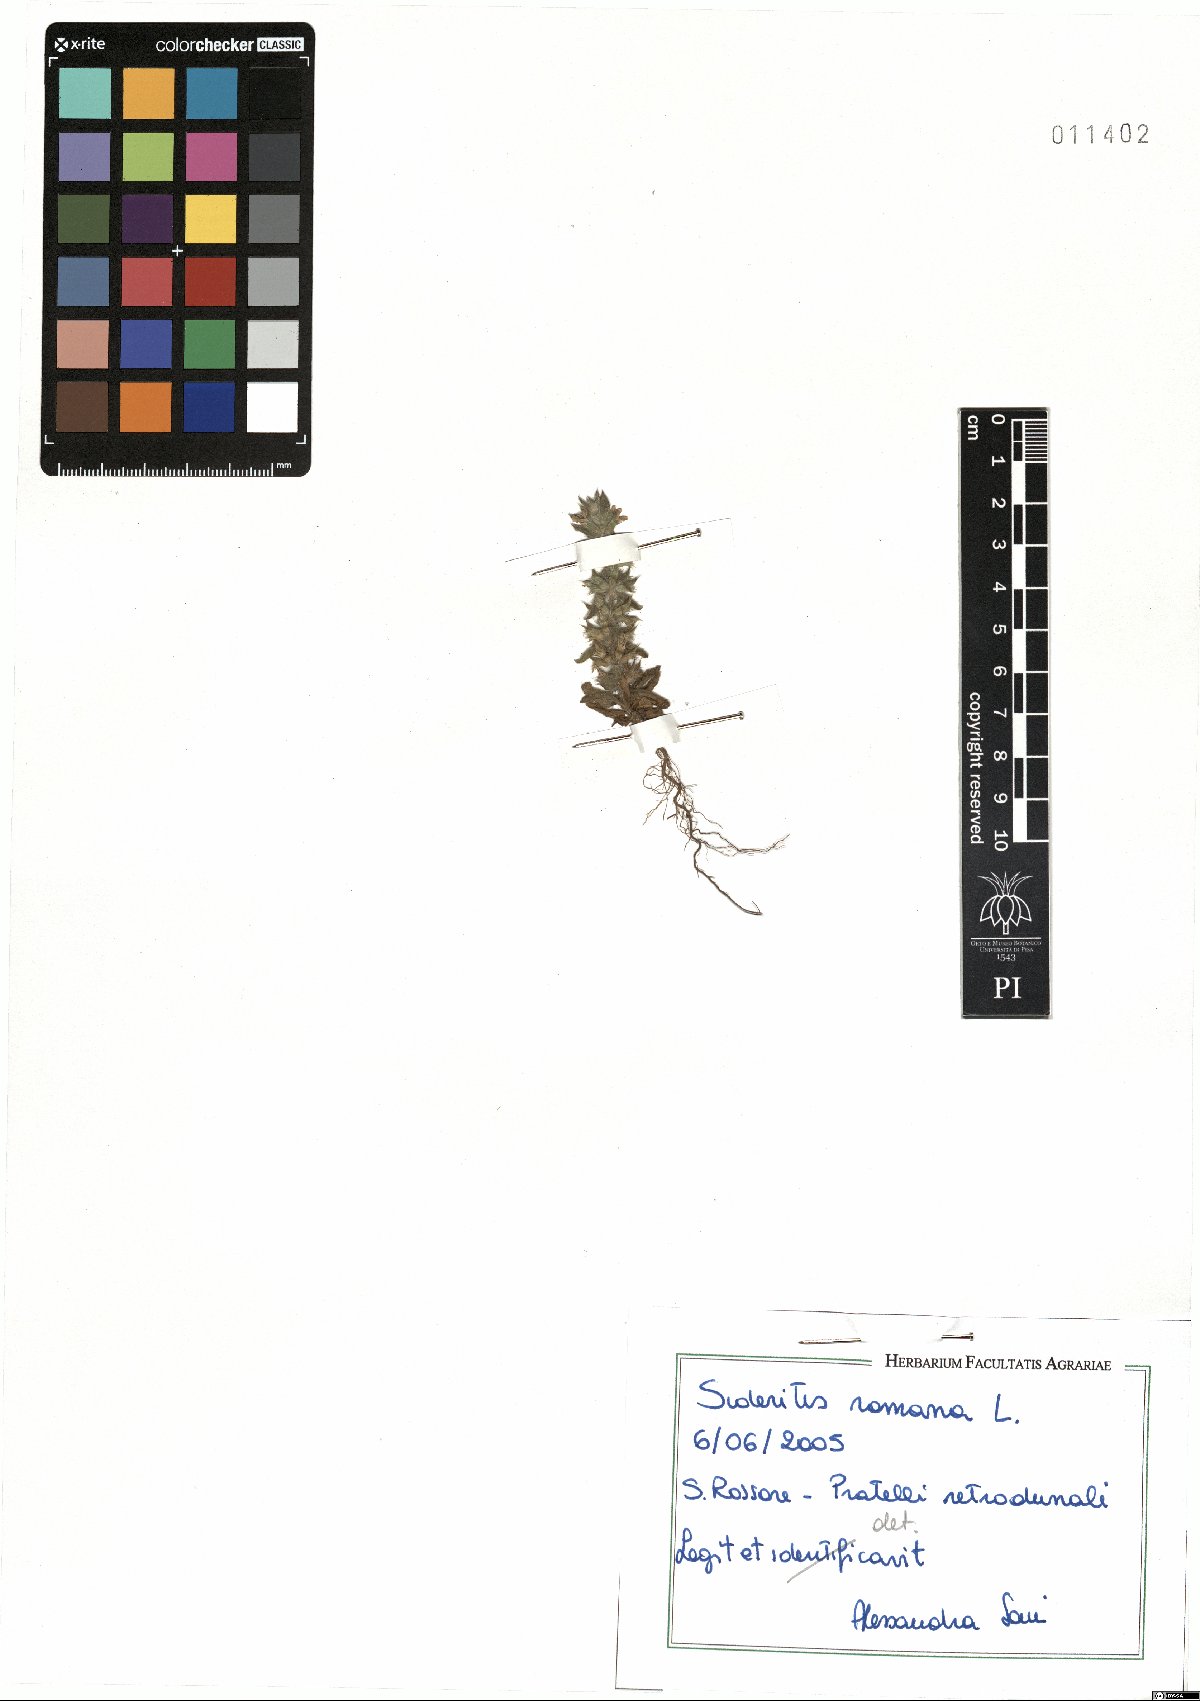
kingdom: Plantae
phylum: Tracheophyta
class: Magnoliopsida
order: Lamiales
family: Lamiaceae
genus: Sideritis
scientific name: Sideritis romana
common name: Simplebeak ironwort
